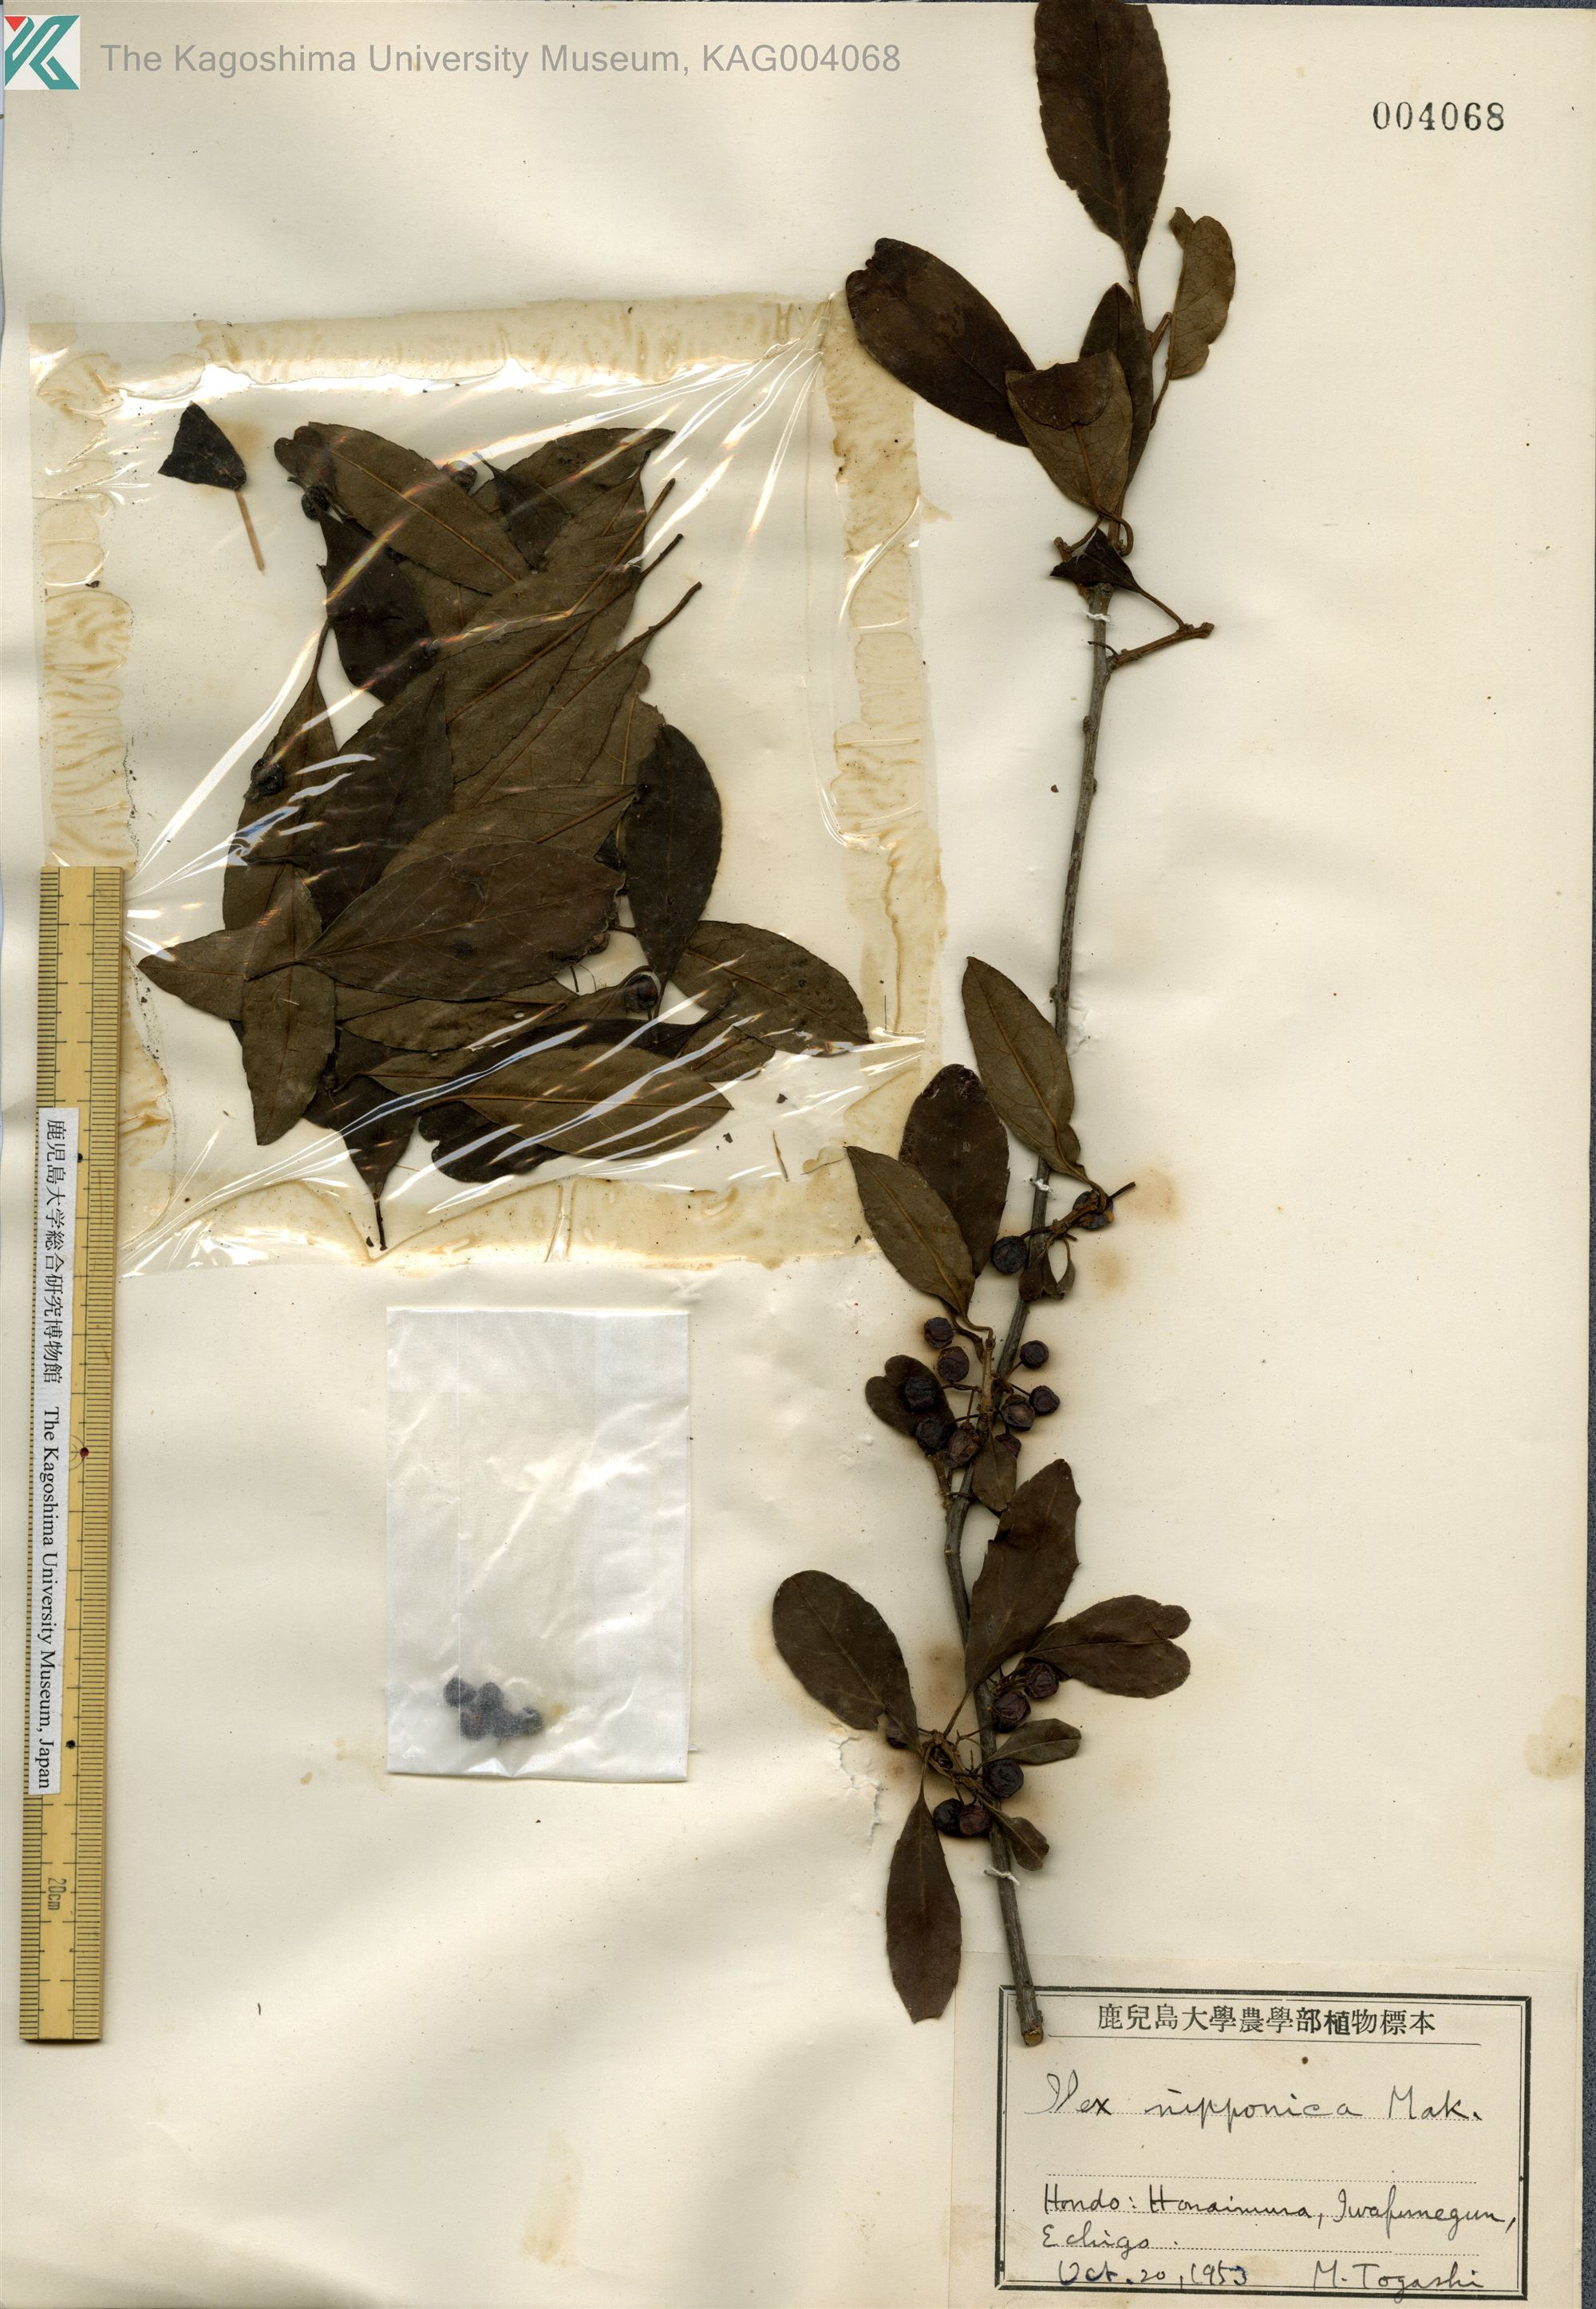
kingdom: Plantae
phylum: Tracheophyta
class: Magnoliopsida
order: Aquifoliales
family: Aquifoliaceae
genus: Ilex
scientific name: Ilex nipponica
